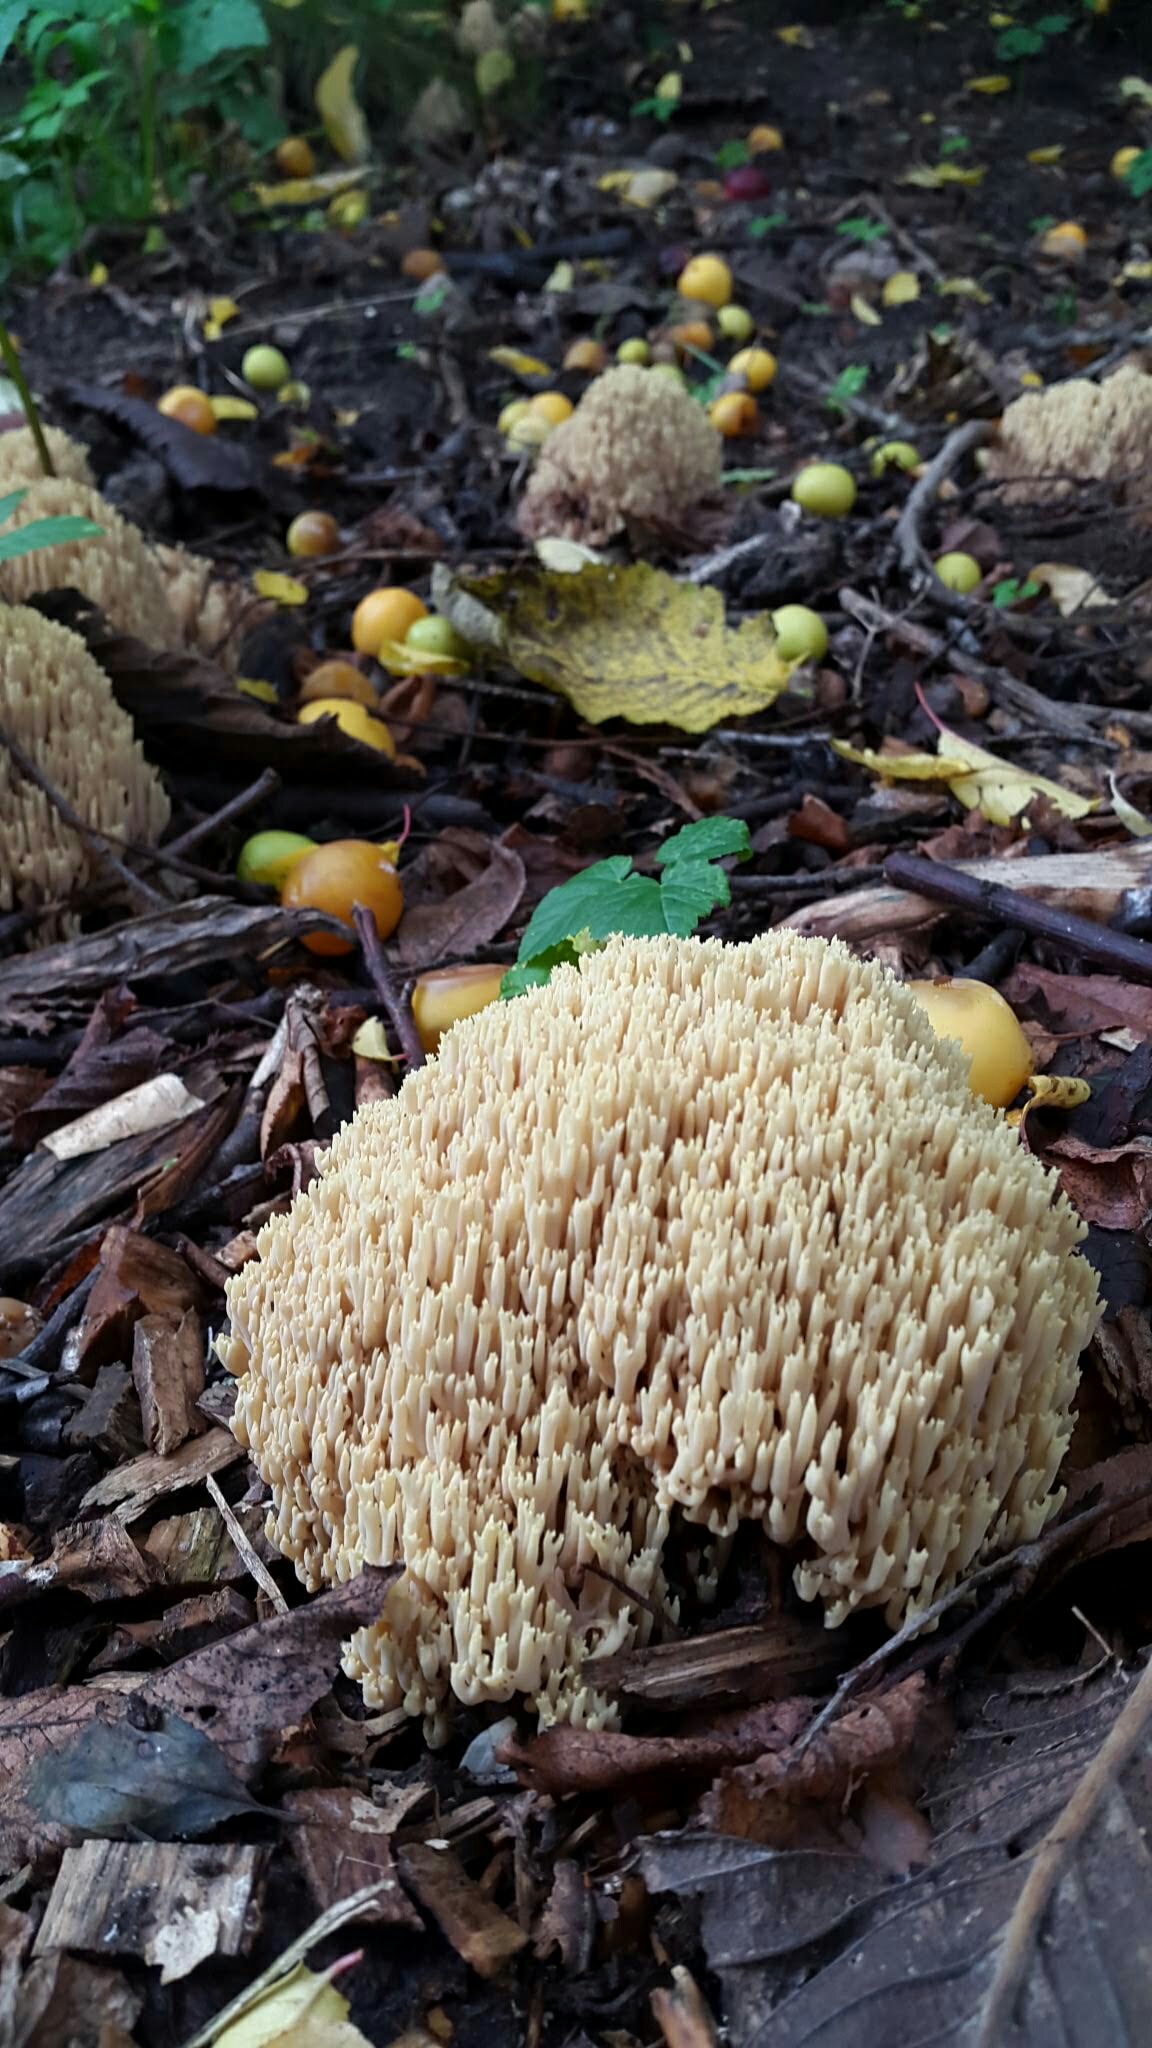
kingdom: Fungi
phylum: Basidiomycota
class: Agaricomycetes
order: Gomphales
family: Gomphaceae
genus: Ramaria
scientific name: Ramaria stricta
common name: rank koralsvamp
